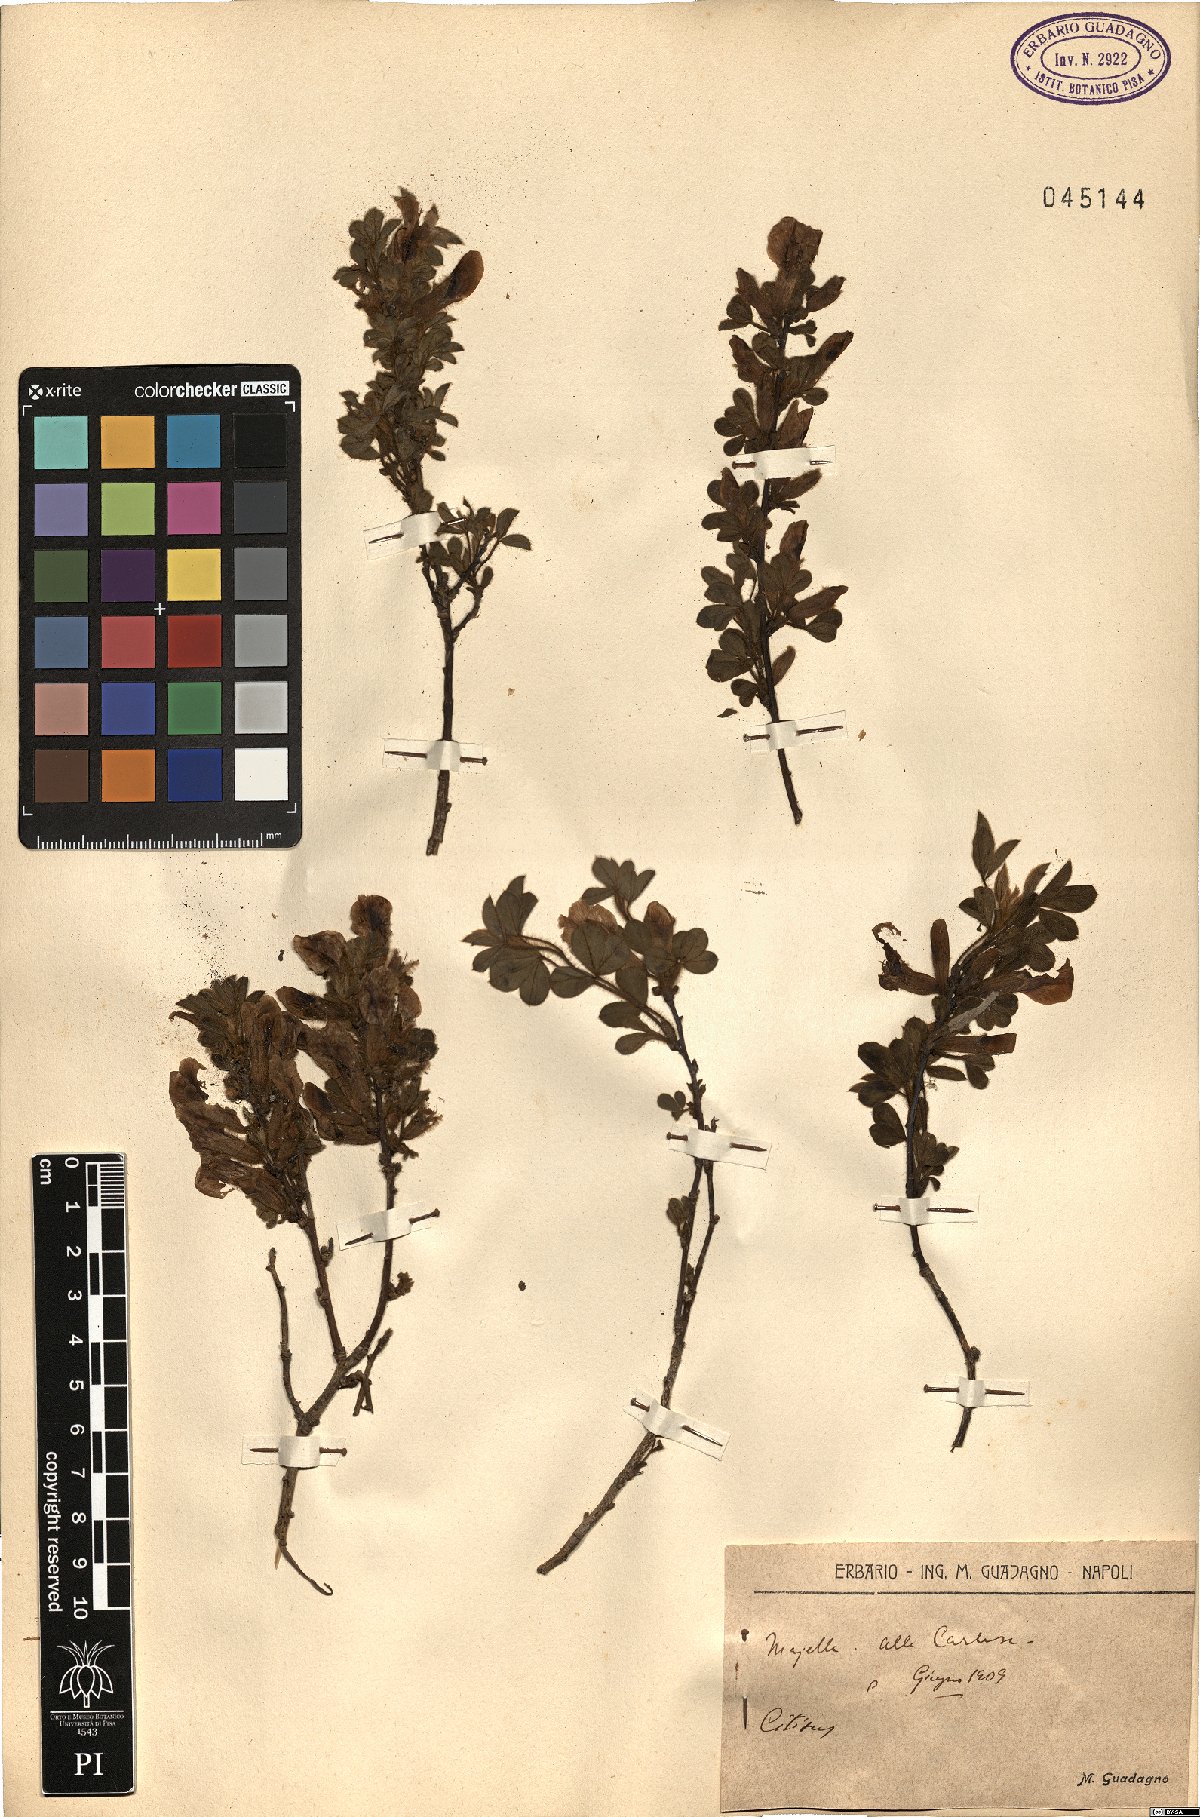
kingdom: Plantae
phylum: Tracheophyta
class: Magnoliopsida
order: Fabales
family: Fabaceae
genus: Cytisus
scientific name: Cytisus
